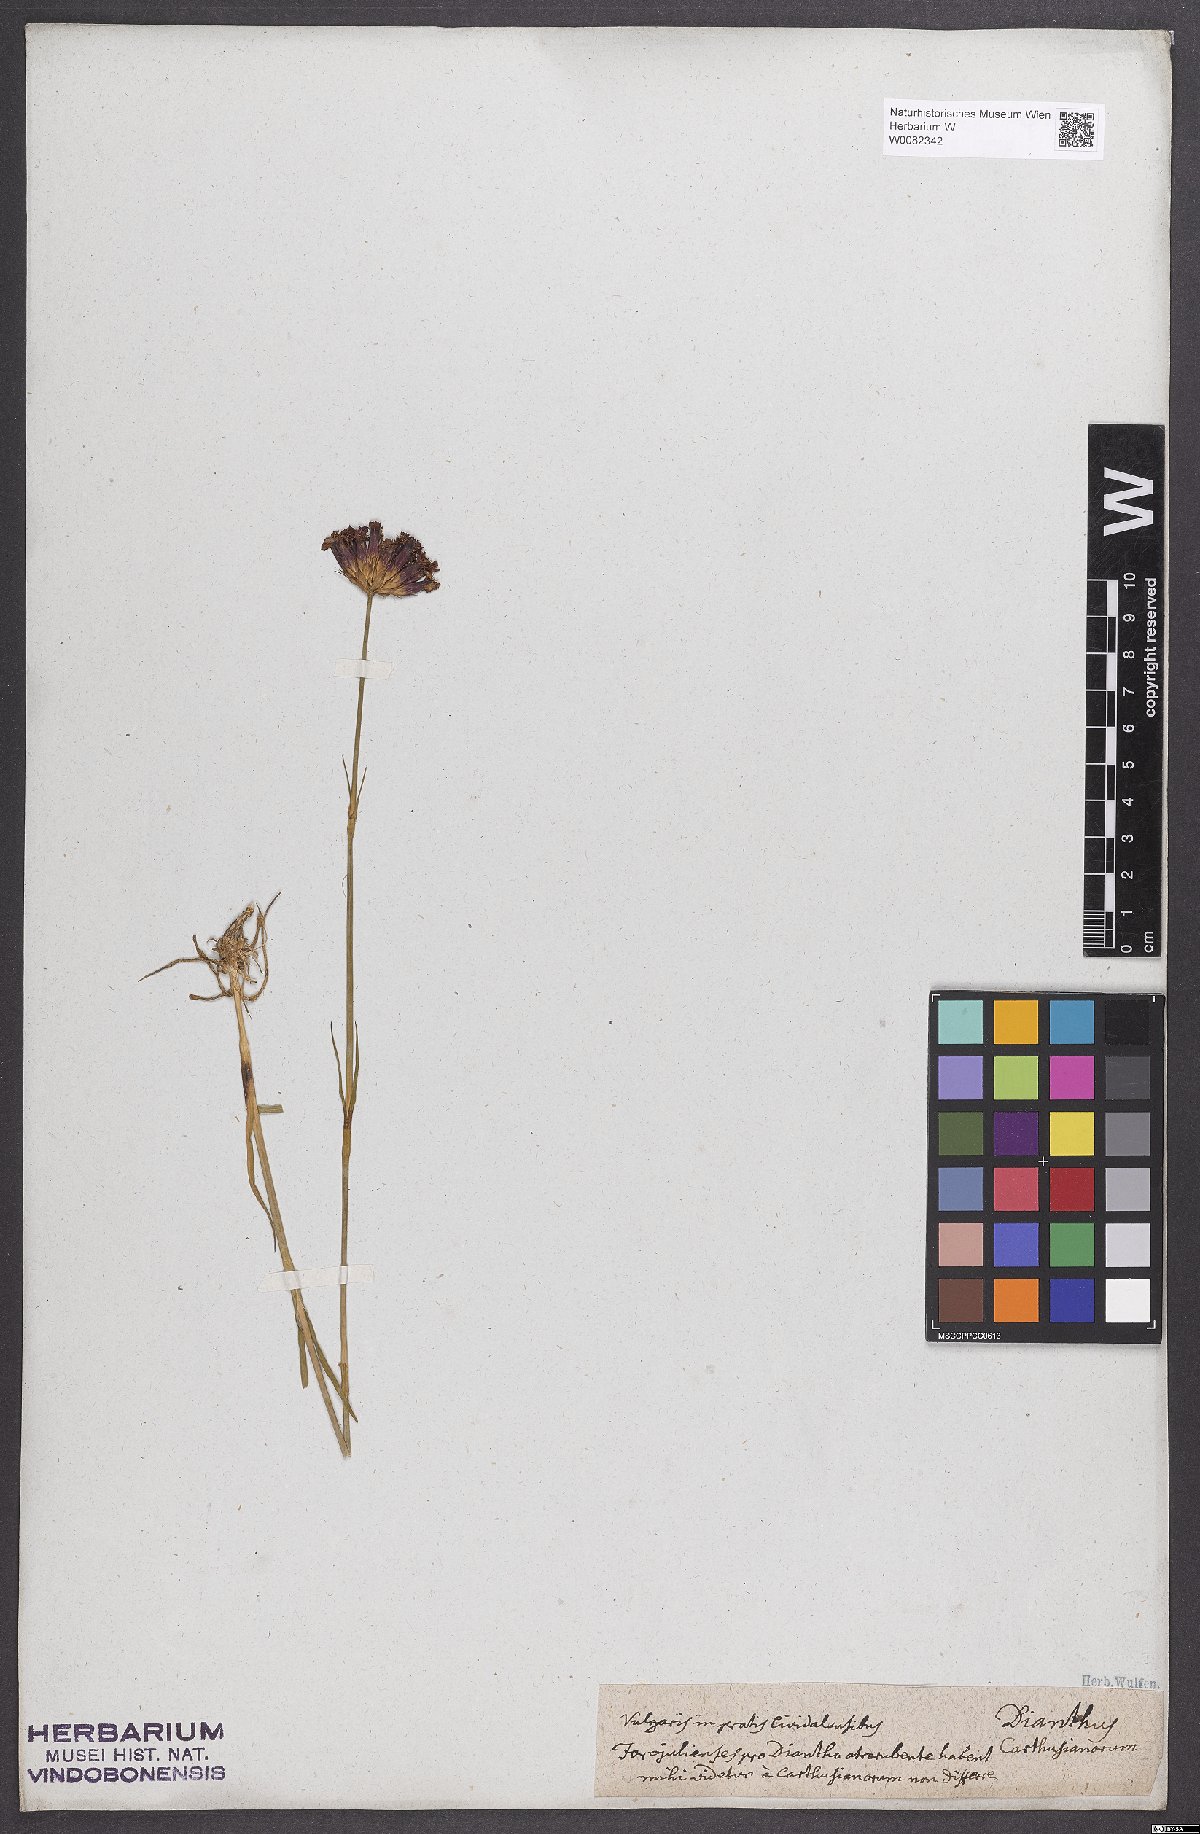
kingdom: Plantae
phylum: Tracheophyta
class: Magnoliopsida
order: Caryophyllales
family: Caryophyllaceae
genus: Dianthus
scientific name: Dianthus carthusianorum
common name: Carthusian pink
